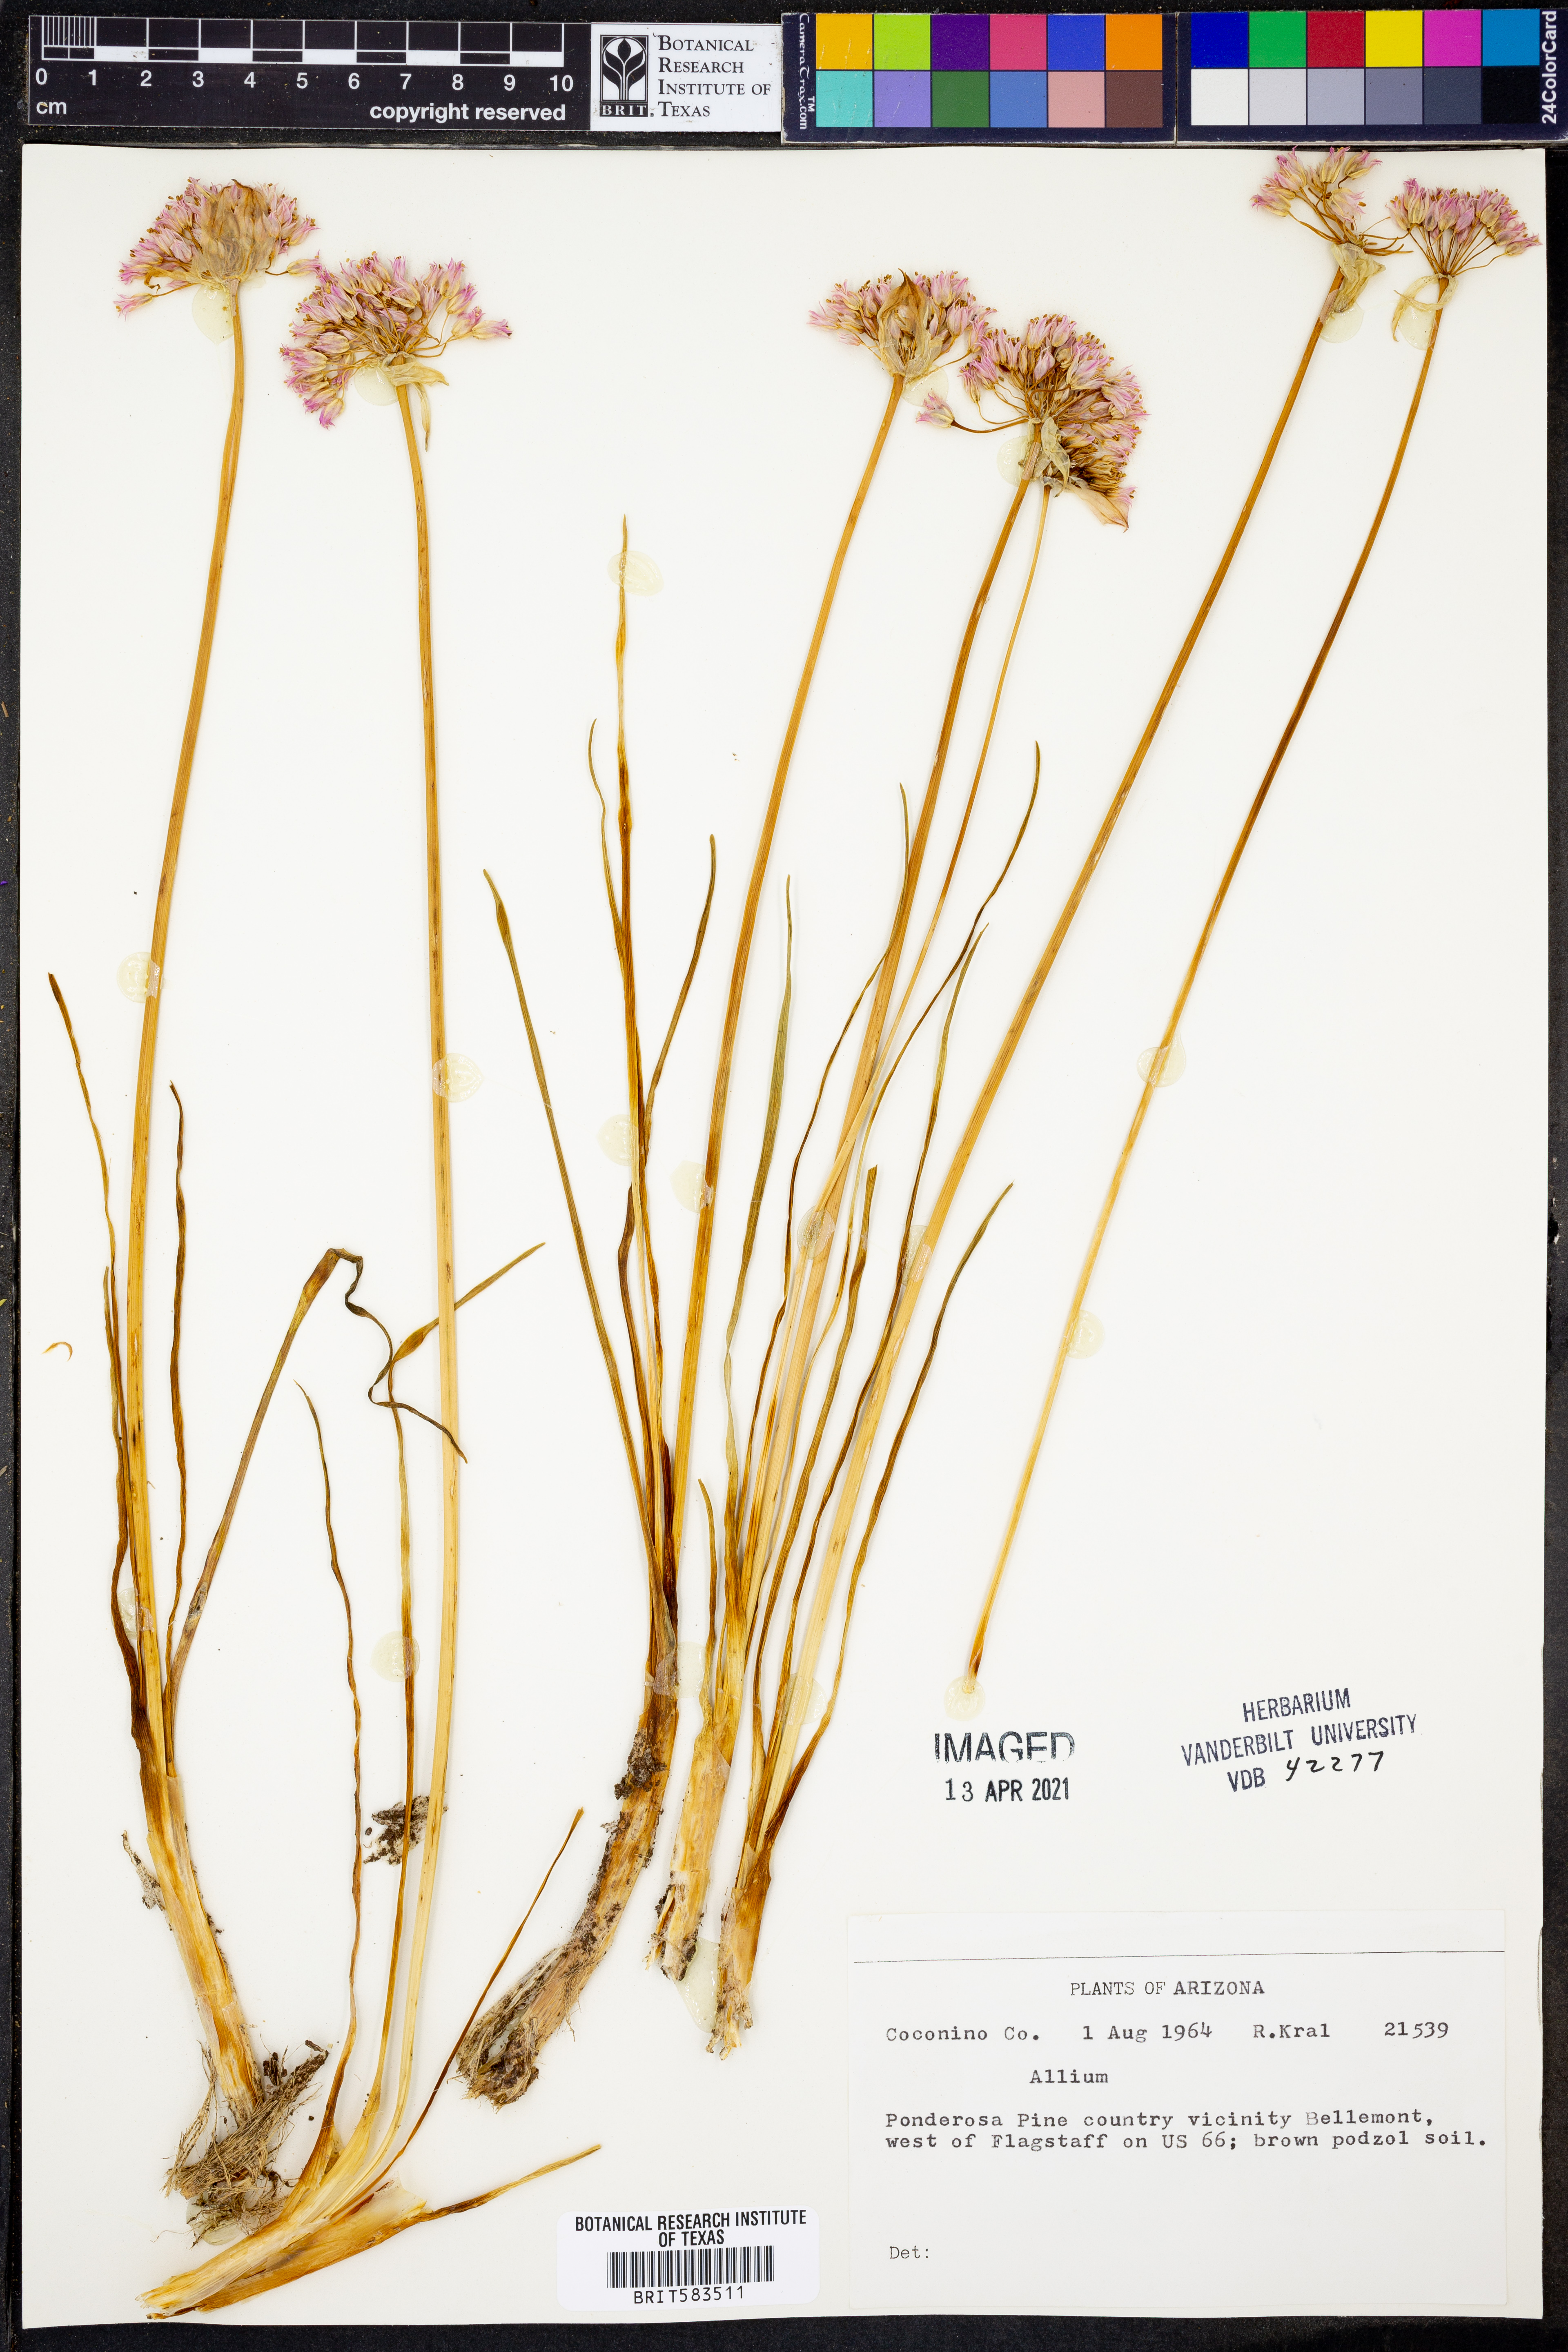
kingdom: Plantae
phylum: Tracheophyta
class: Liliopsida
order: Asparagales
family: Amaryllidaceae
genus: Allium
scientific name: Allium
